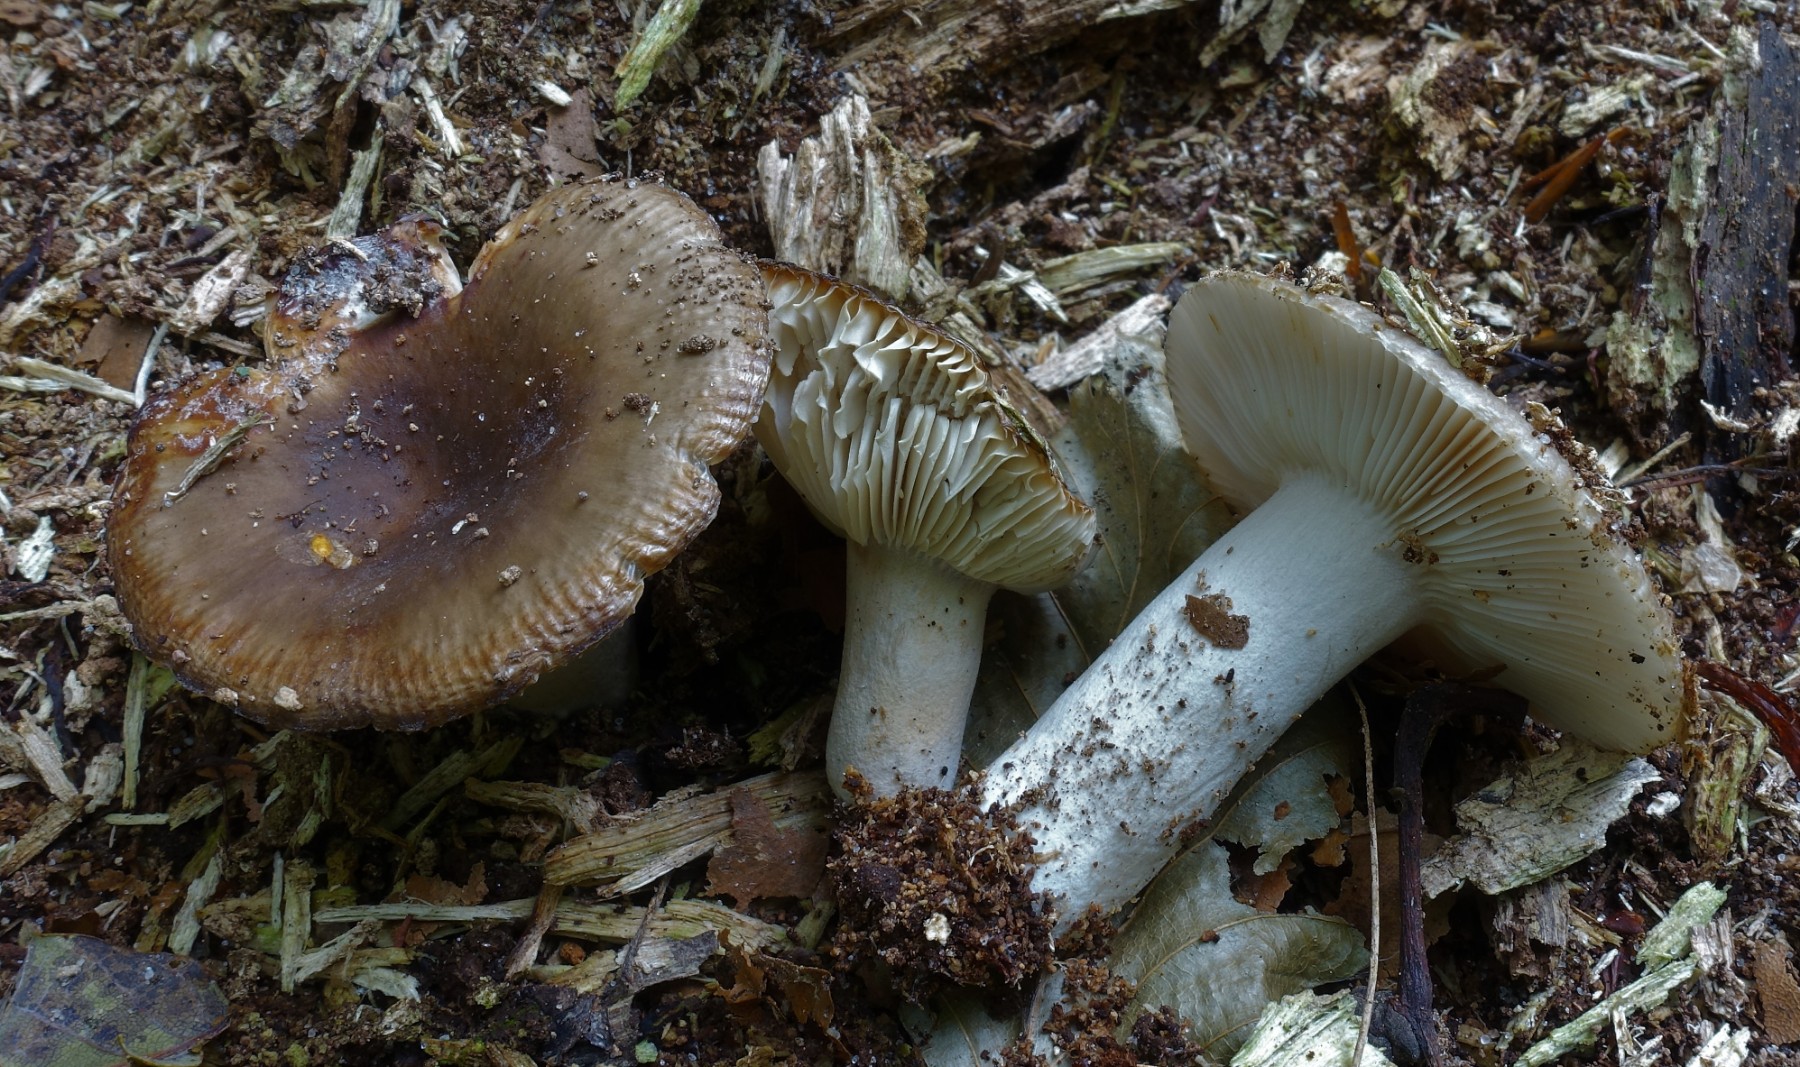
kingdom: Fungi
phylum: Basidiomycota
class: Agaricomycetes
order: Russulales
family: Russulaceae
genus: Russula
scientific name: Russula amoenolens
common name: skarp kam-skørhat
